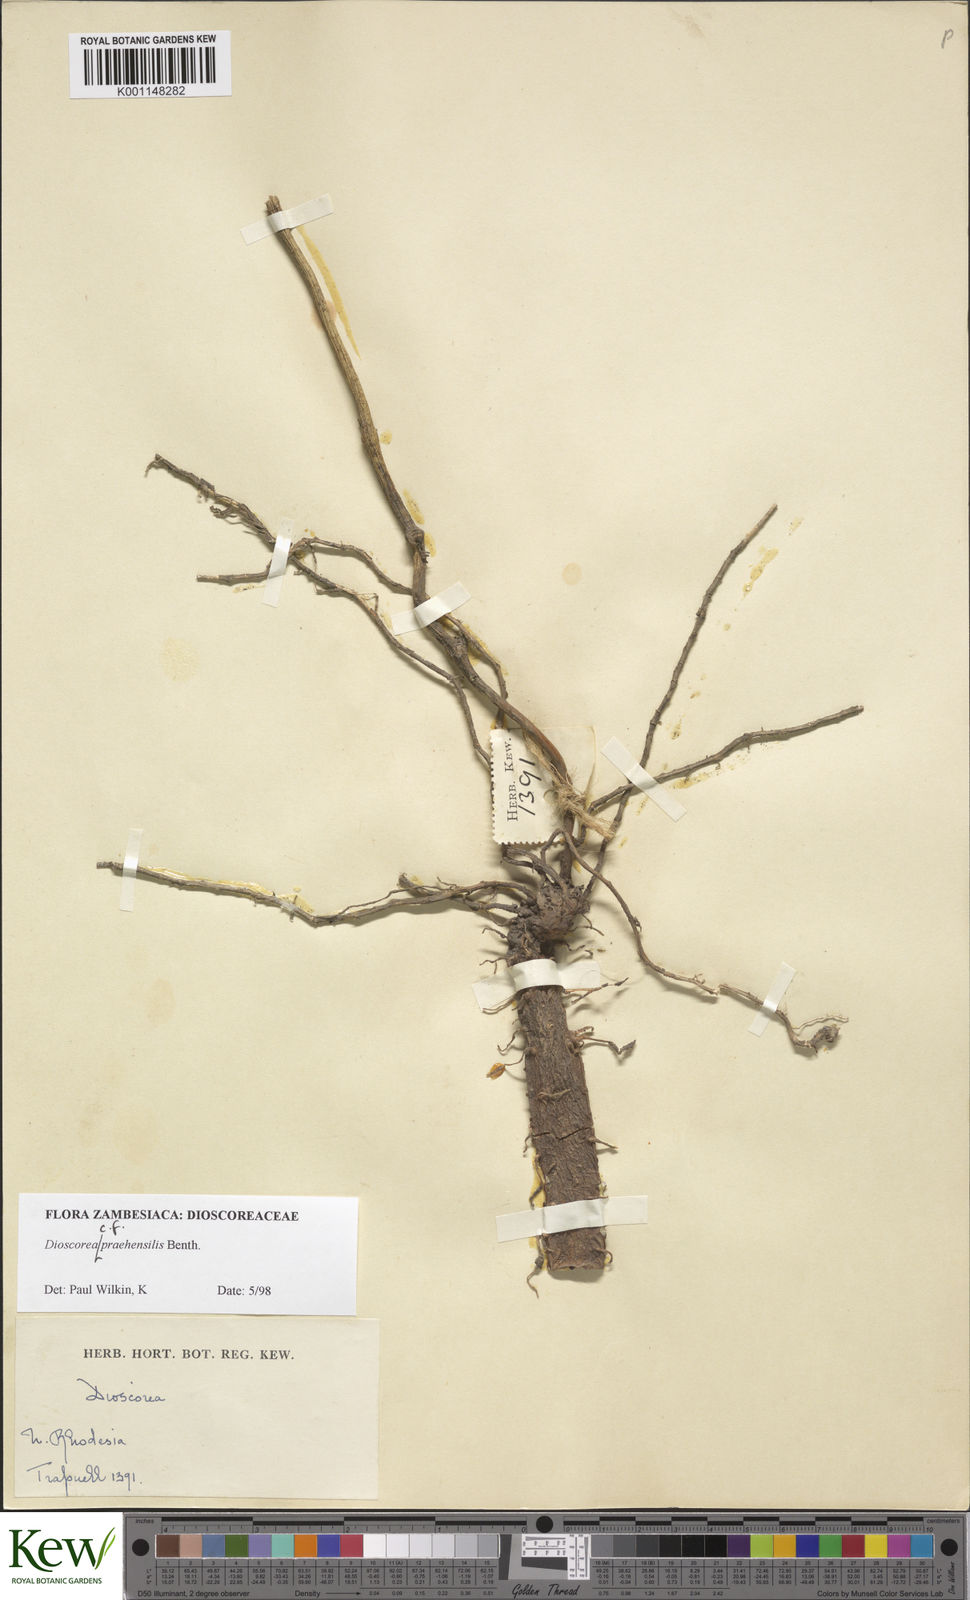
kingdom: Plantae
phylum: Tracheophyta
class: Liliopsida
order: Dioscoreales
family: Dioscoreaceae
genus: Dioscorea
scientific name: Dioscorea praehensilis
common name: Bush yam
